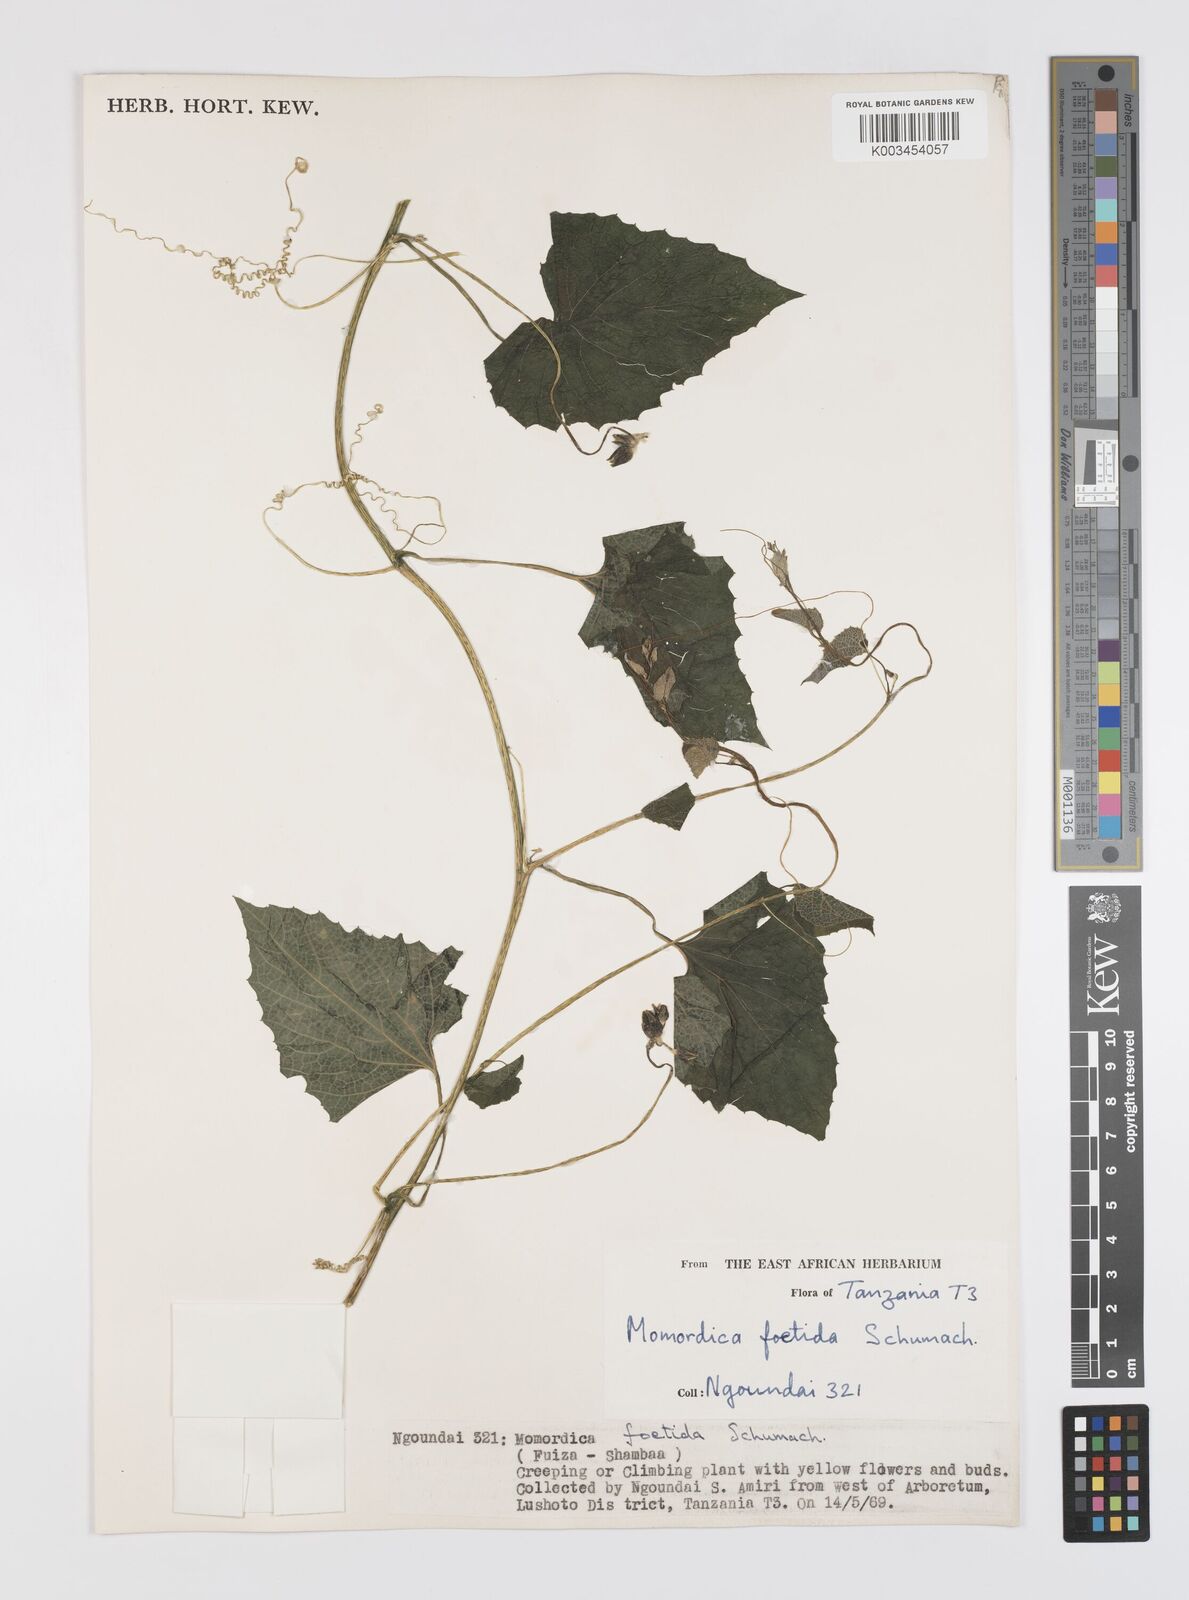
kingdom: Plantae
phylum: Tracheophyta
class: Magnoliopsida
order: Cucurbitales
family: Cucurbitaceae
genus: Momordica
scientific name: Momordica foetida
